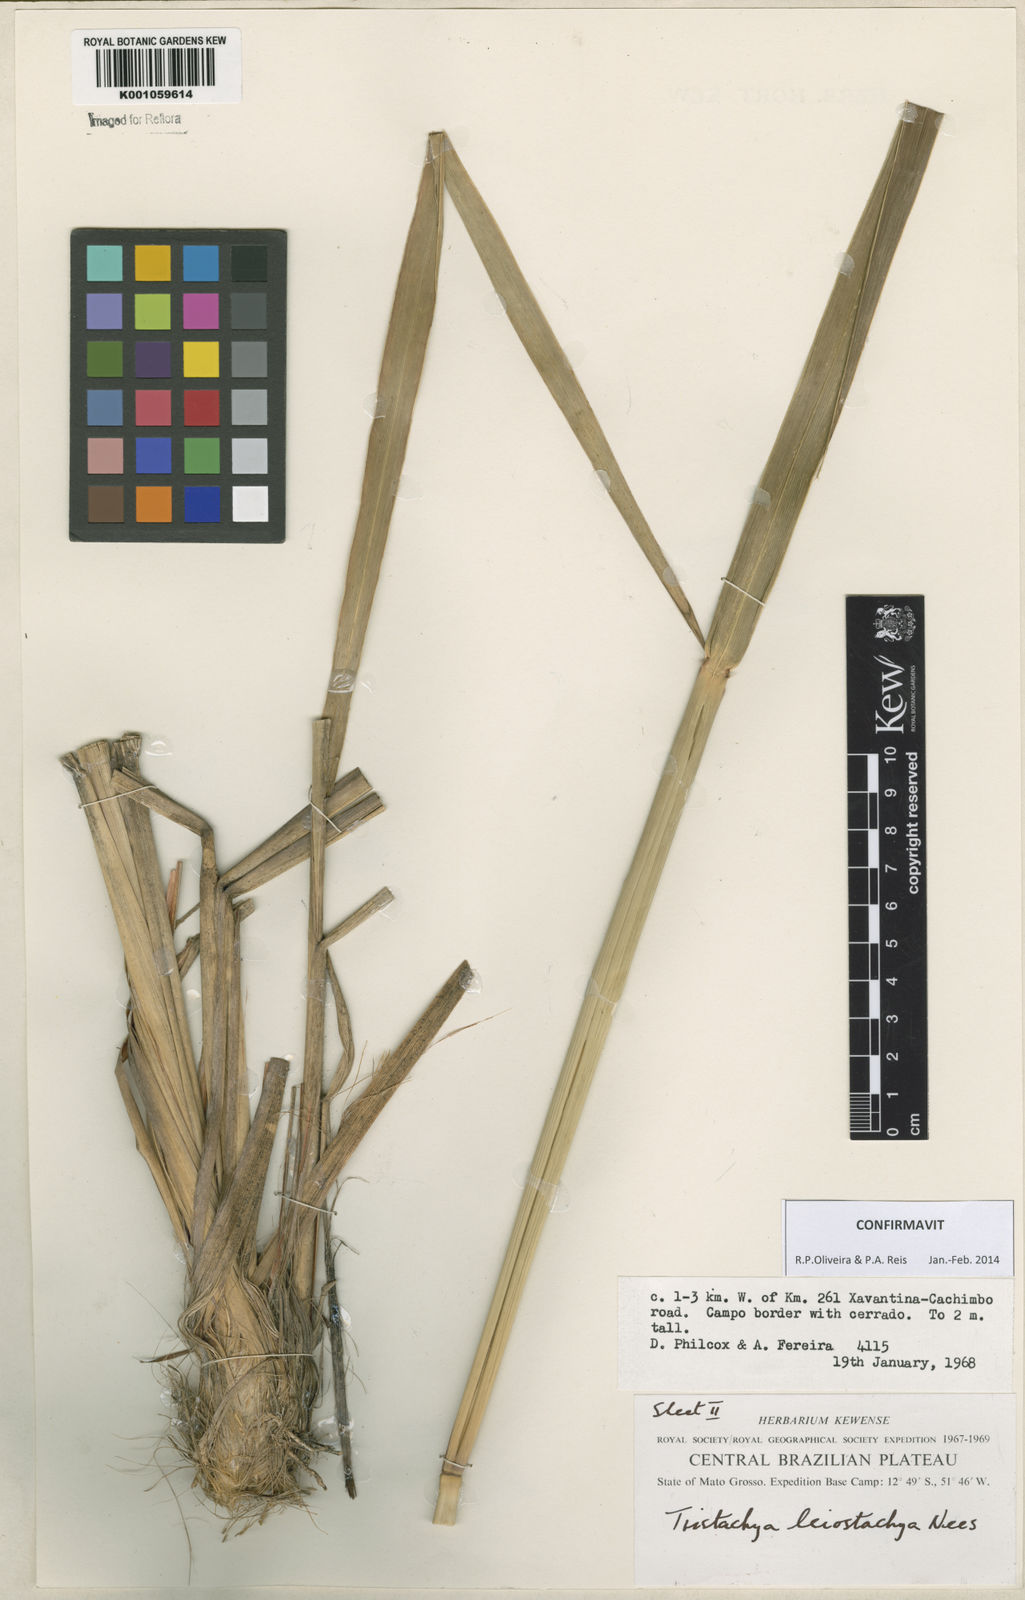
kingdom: Plantae
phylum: Tracheophyta
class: Liliopsida
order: Poales
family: Poaceae
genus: Tristachya
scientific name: Tristachya leiostachya
